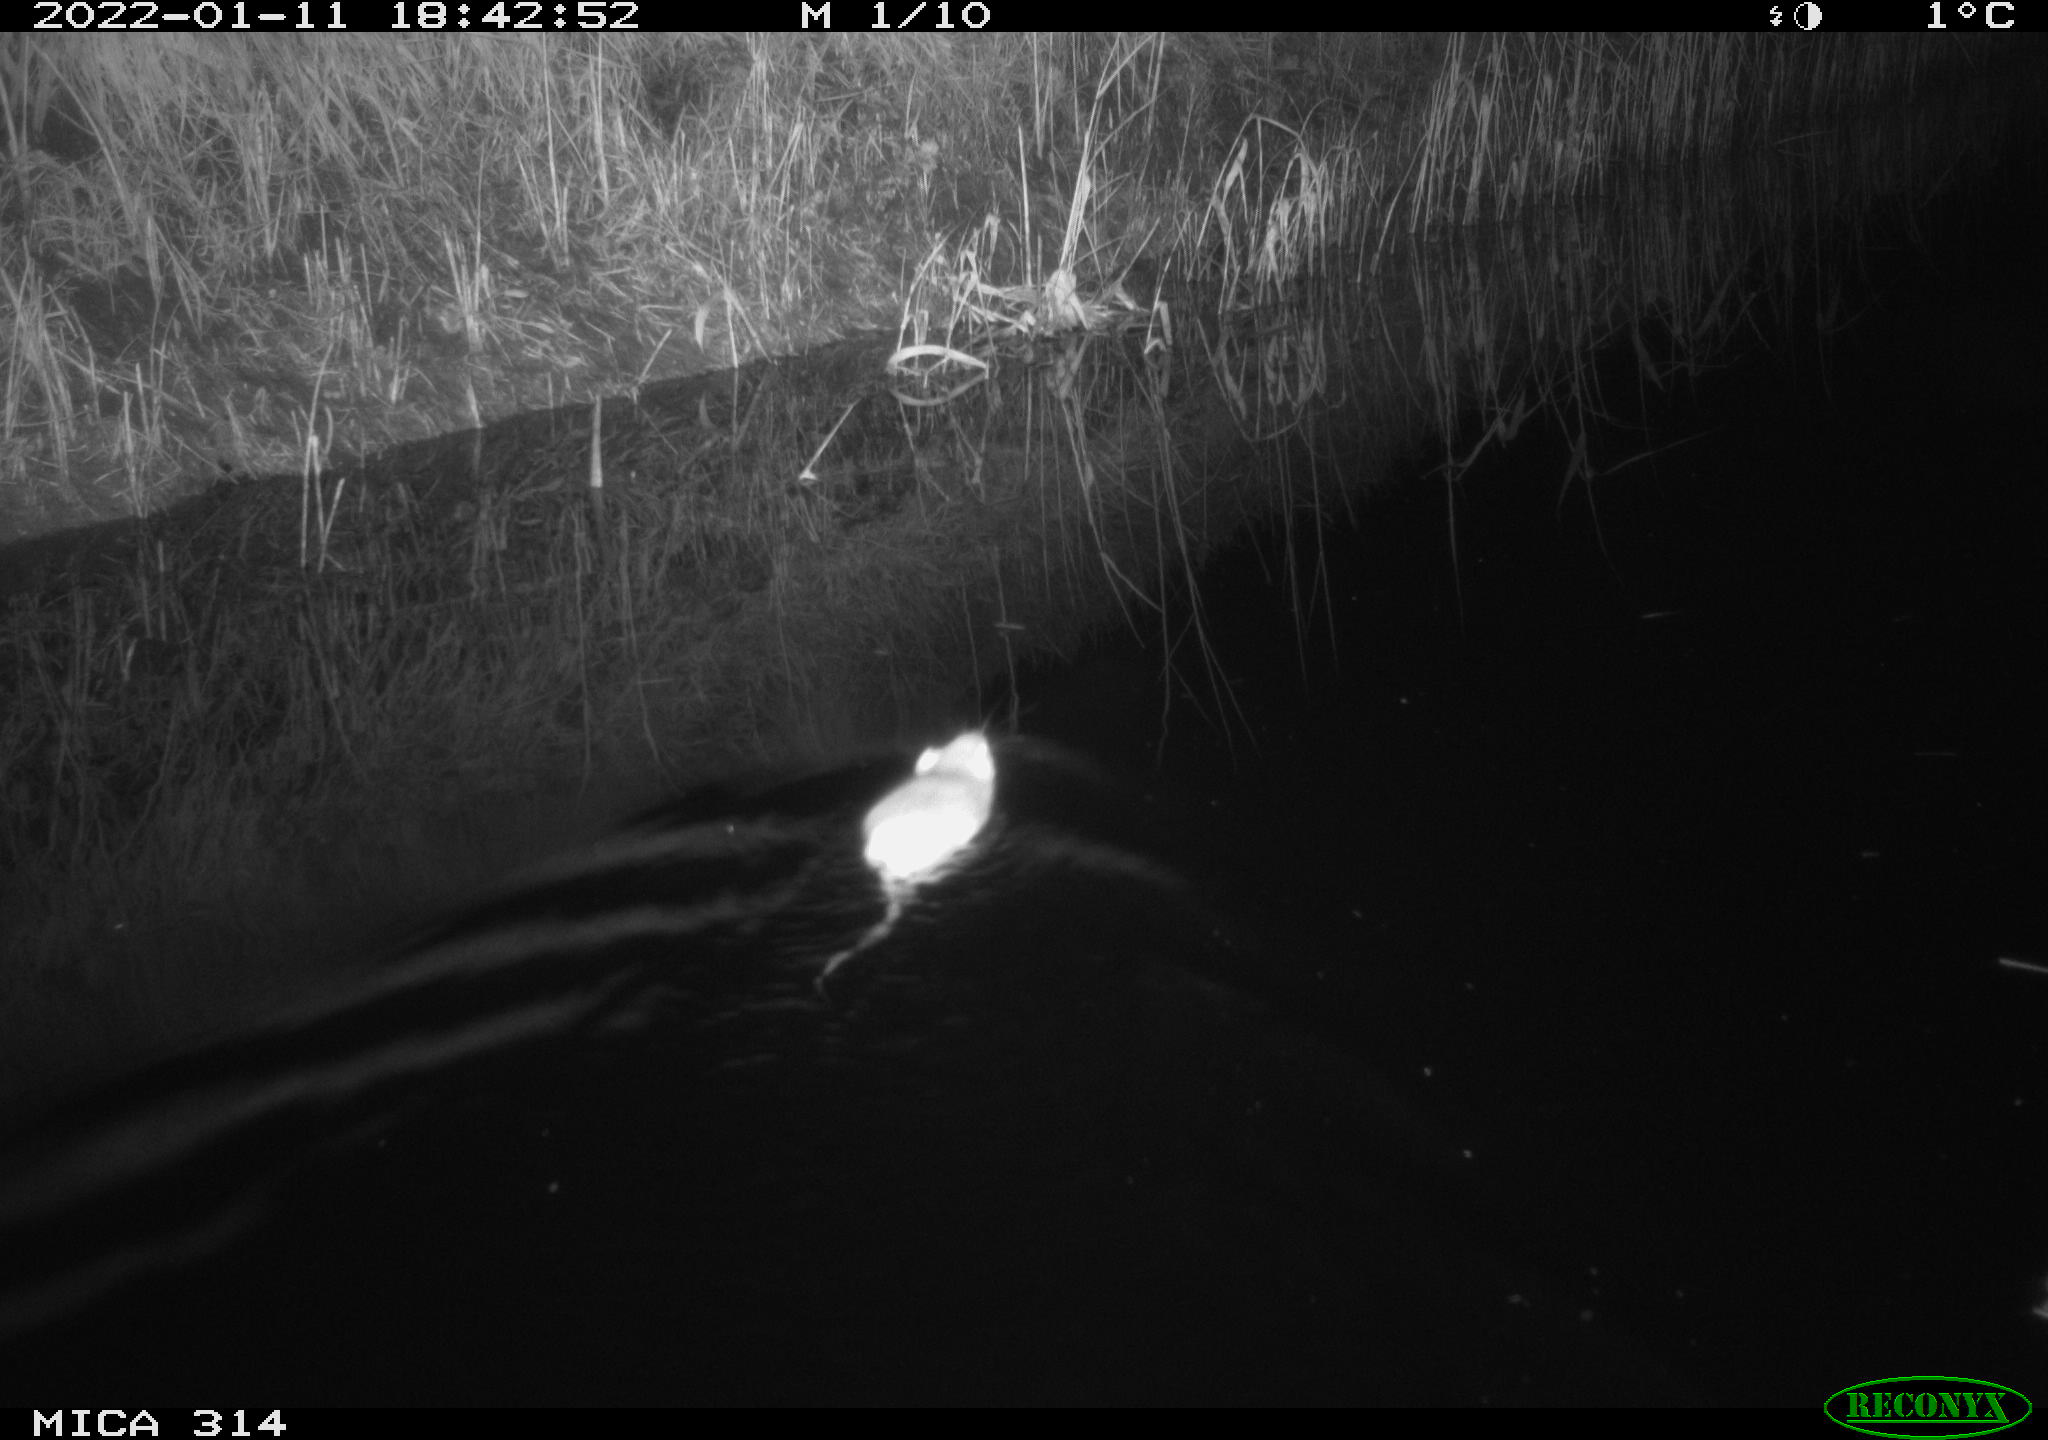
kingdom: Animalia
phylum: Chordata
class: Mammalia
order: Rodentia
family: Muridae
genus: Rattus
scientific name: Rattus norvegicus
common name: Brown rat
